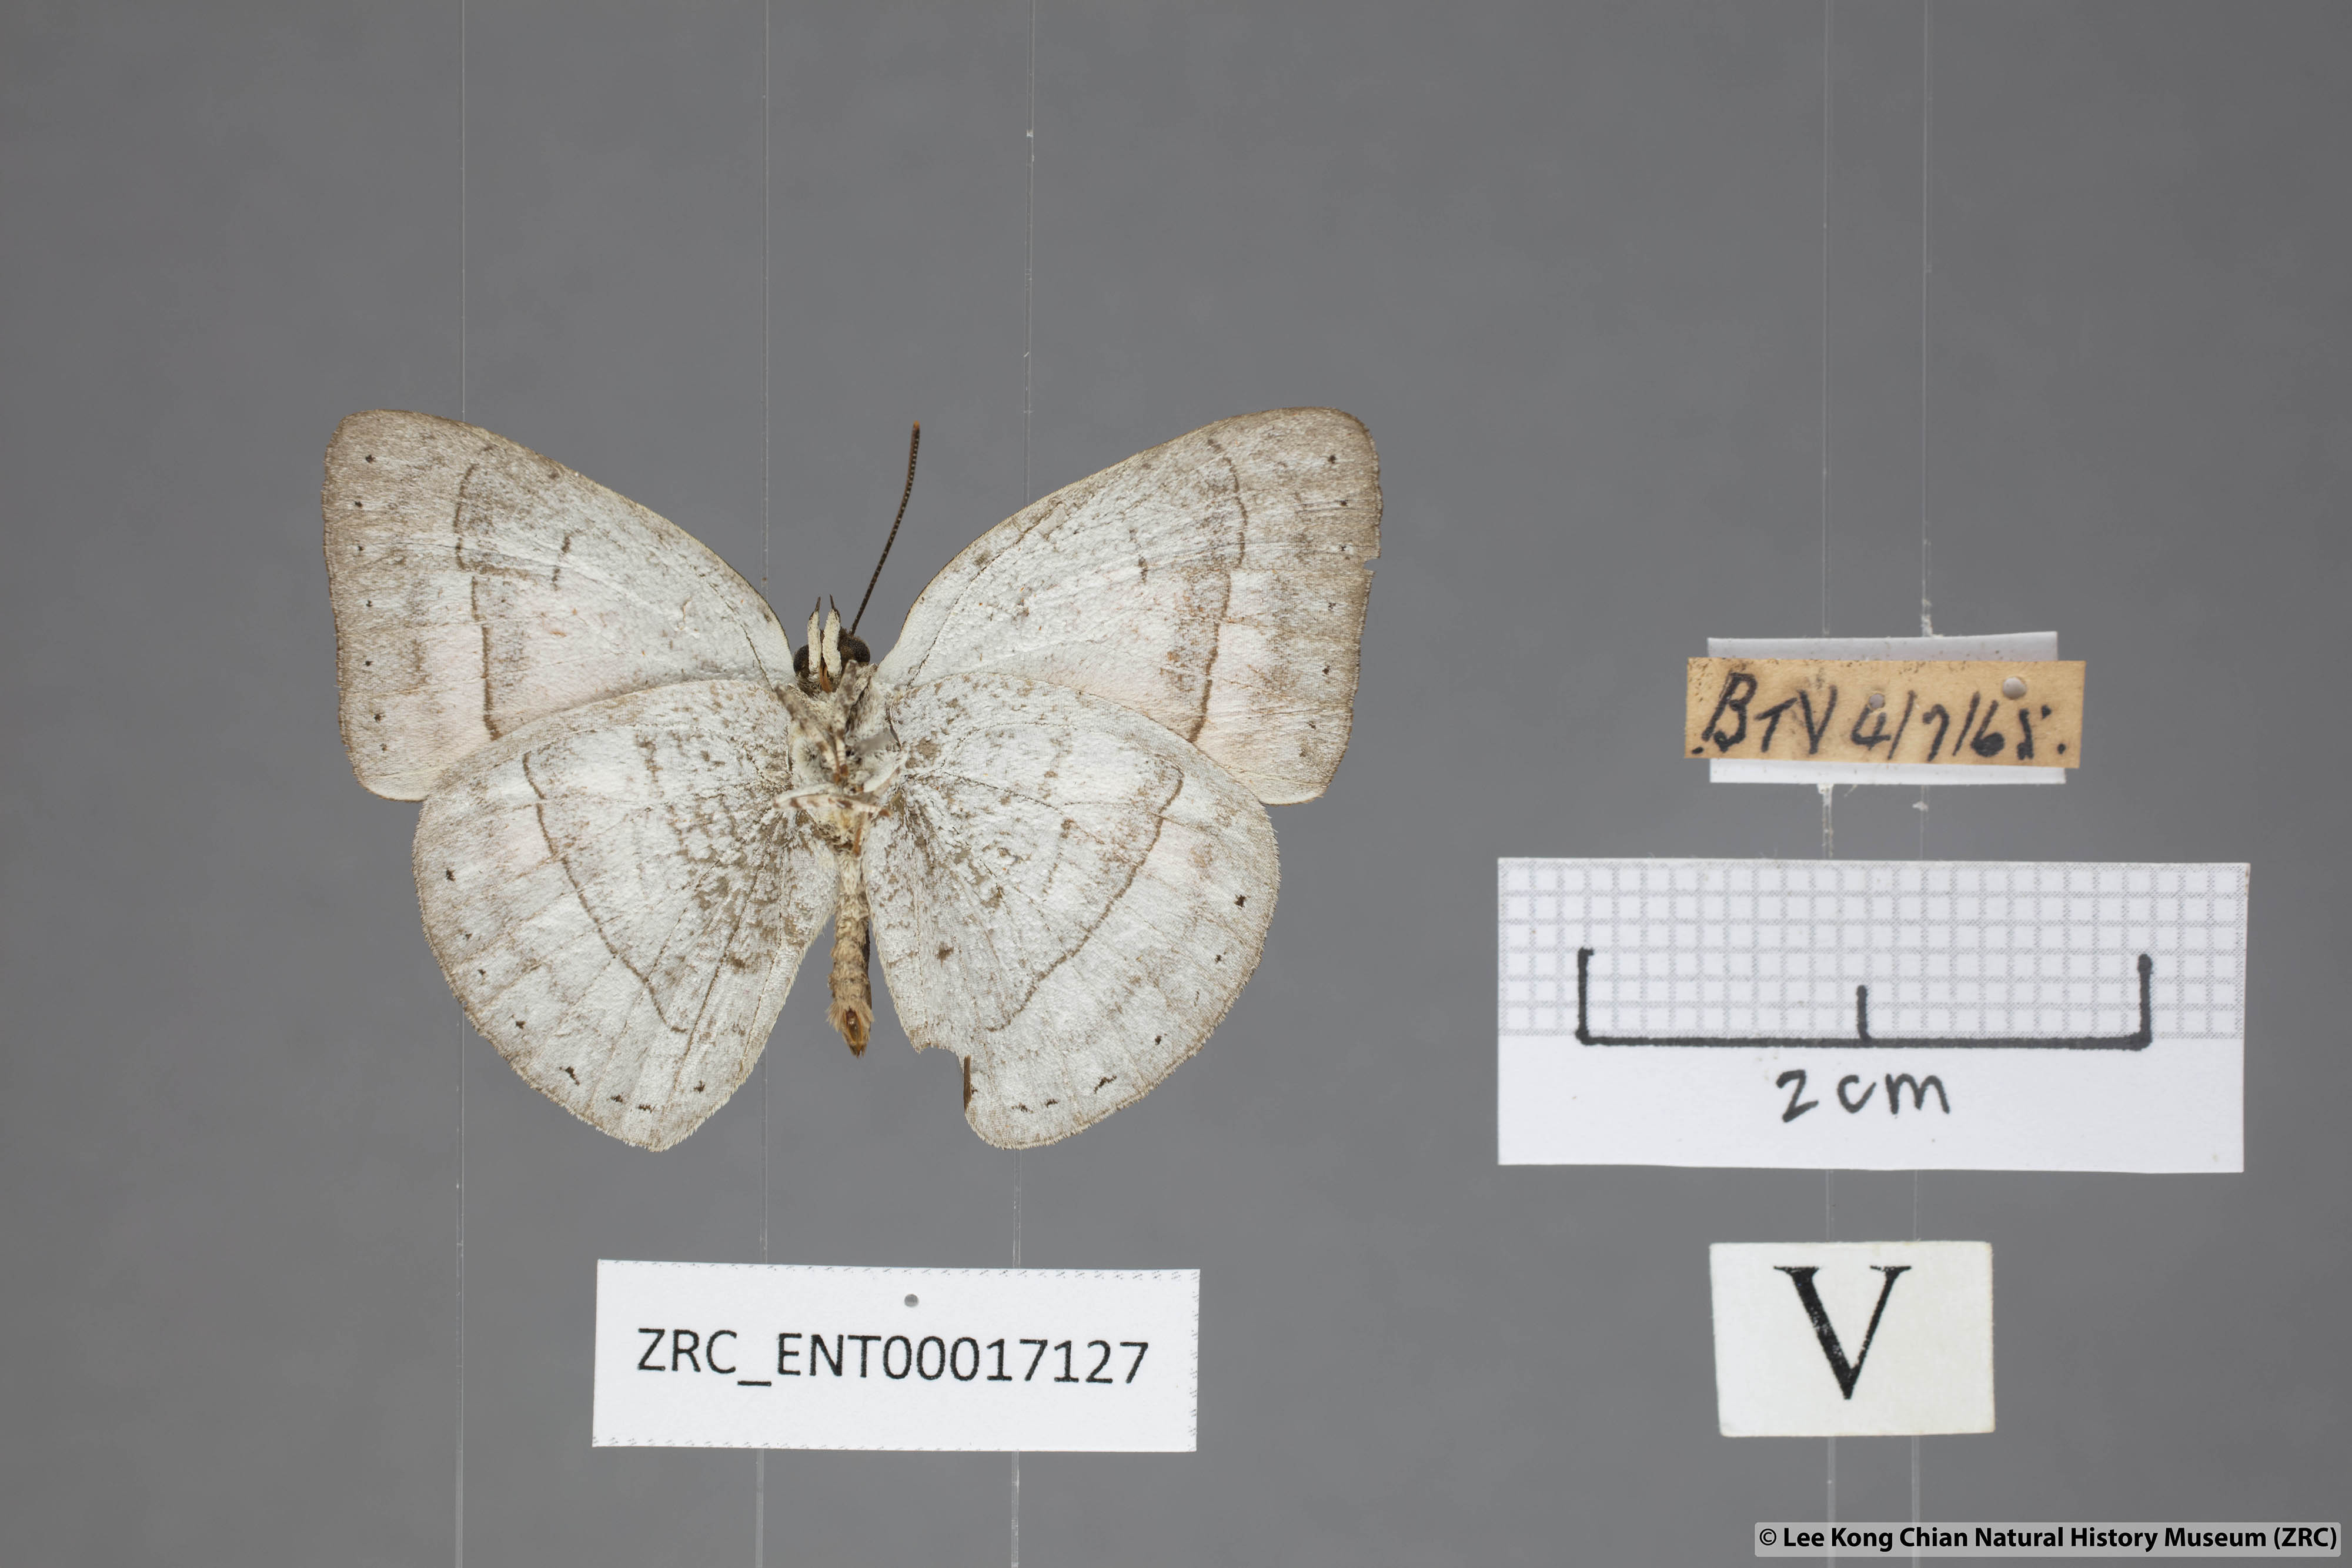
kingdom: Animalia
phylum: Arthropoda
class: Insecta
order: Lepidoptera
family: Lycaenidae
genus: Curetis
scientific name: Curetis freda
